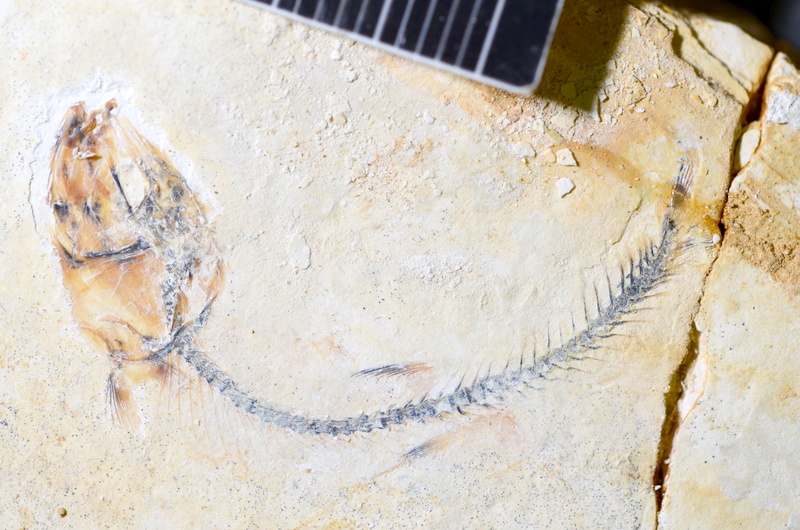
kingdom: Animalia
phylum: Chordata
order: Salmoniformes
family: Orthogonikleithridae
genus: Orthogonikleithrus
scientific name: Orthogonikleithrus hoelli
